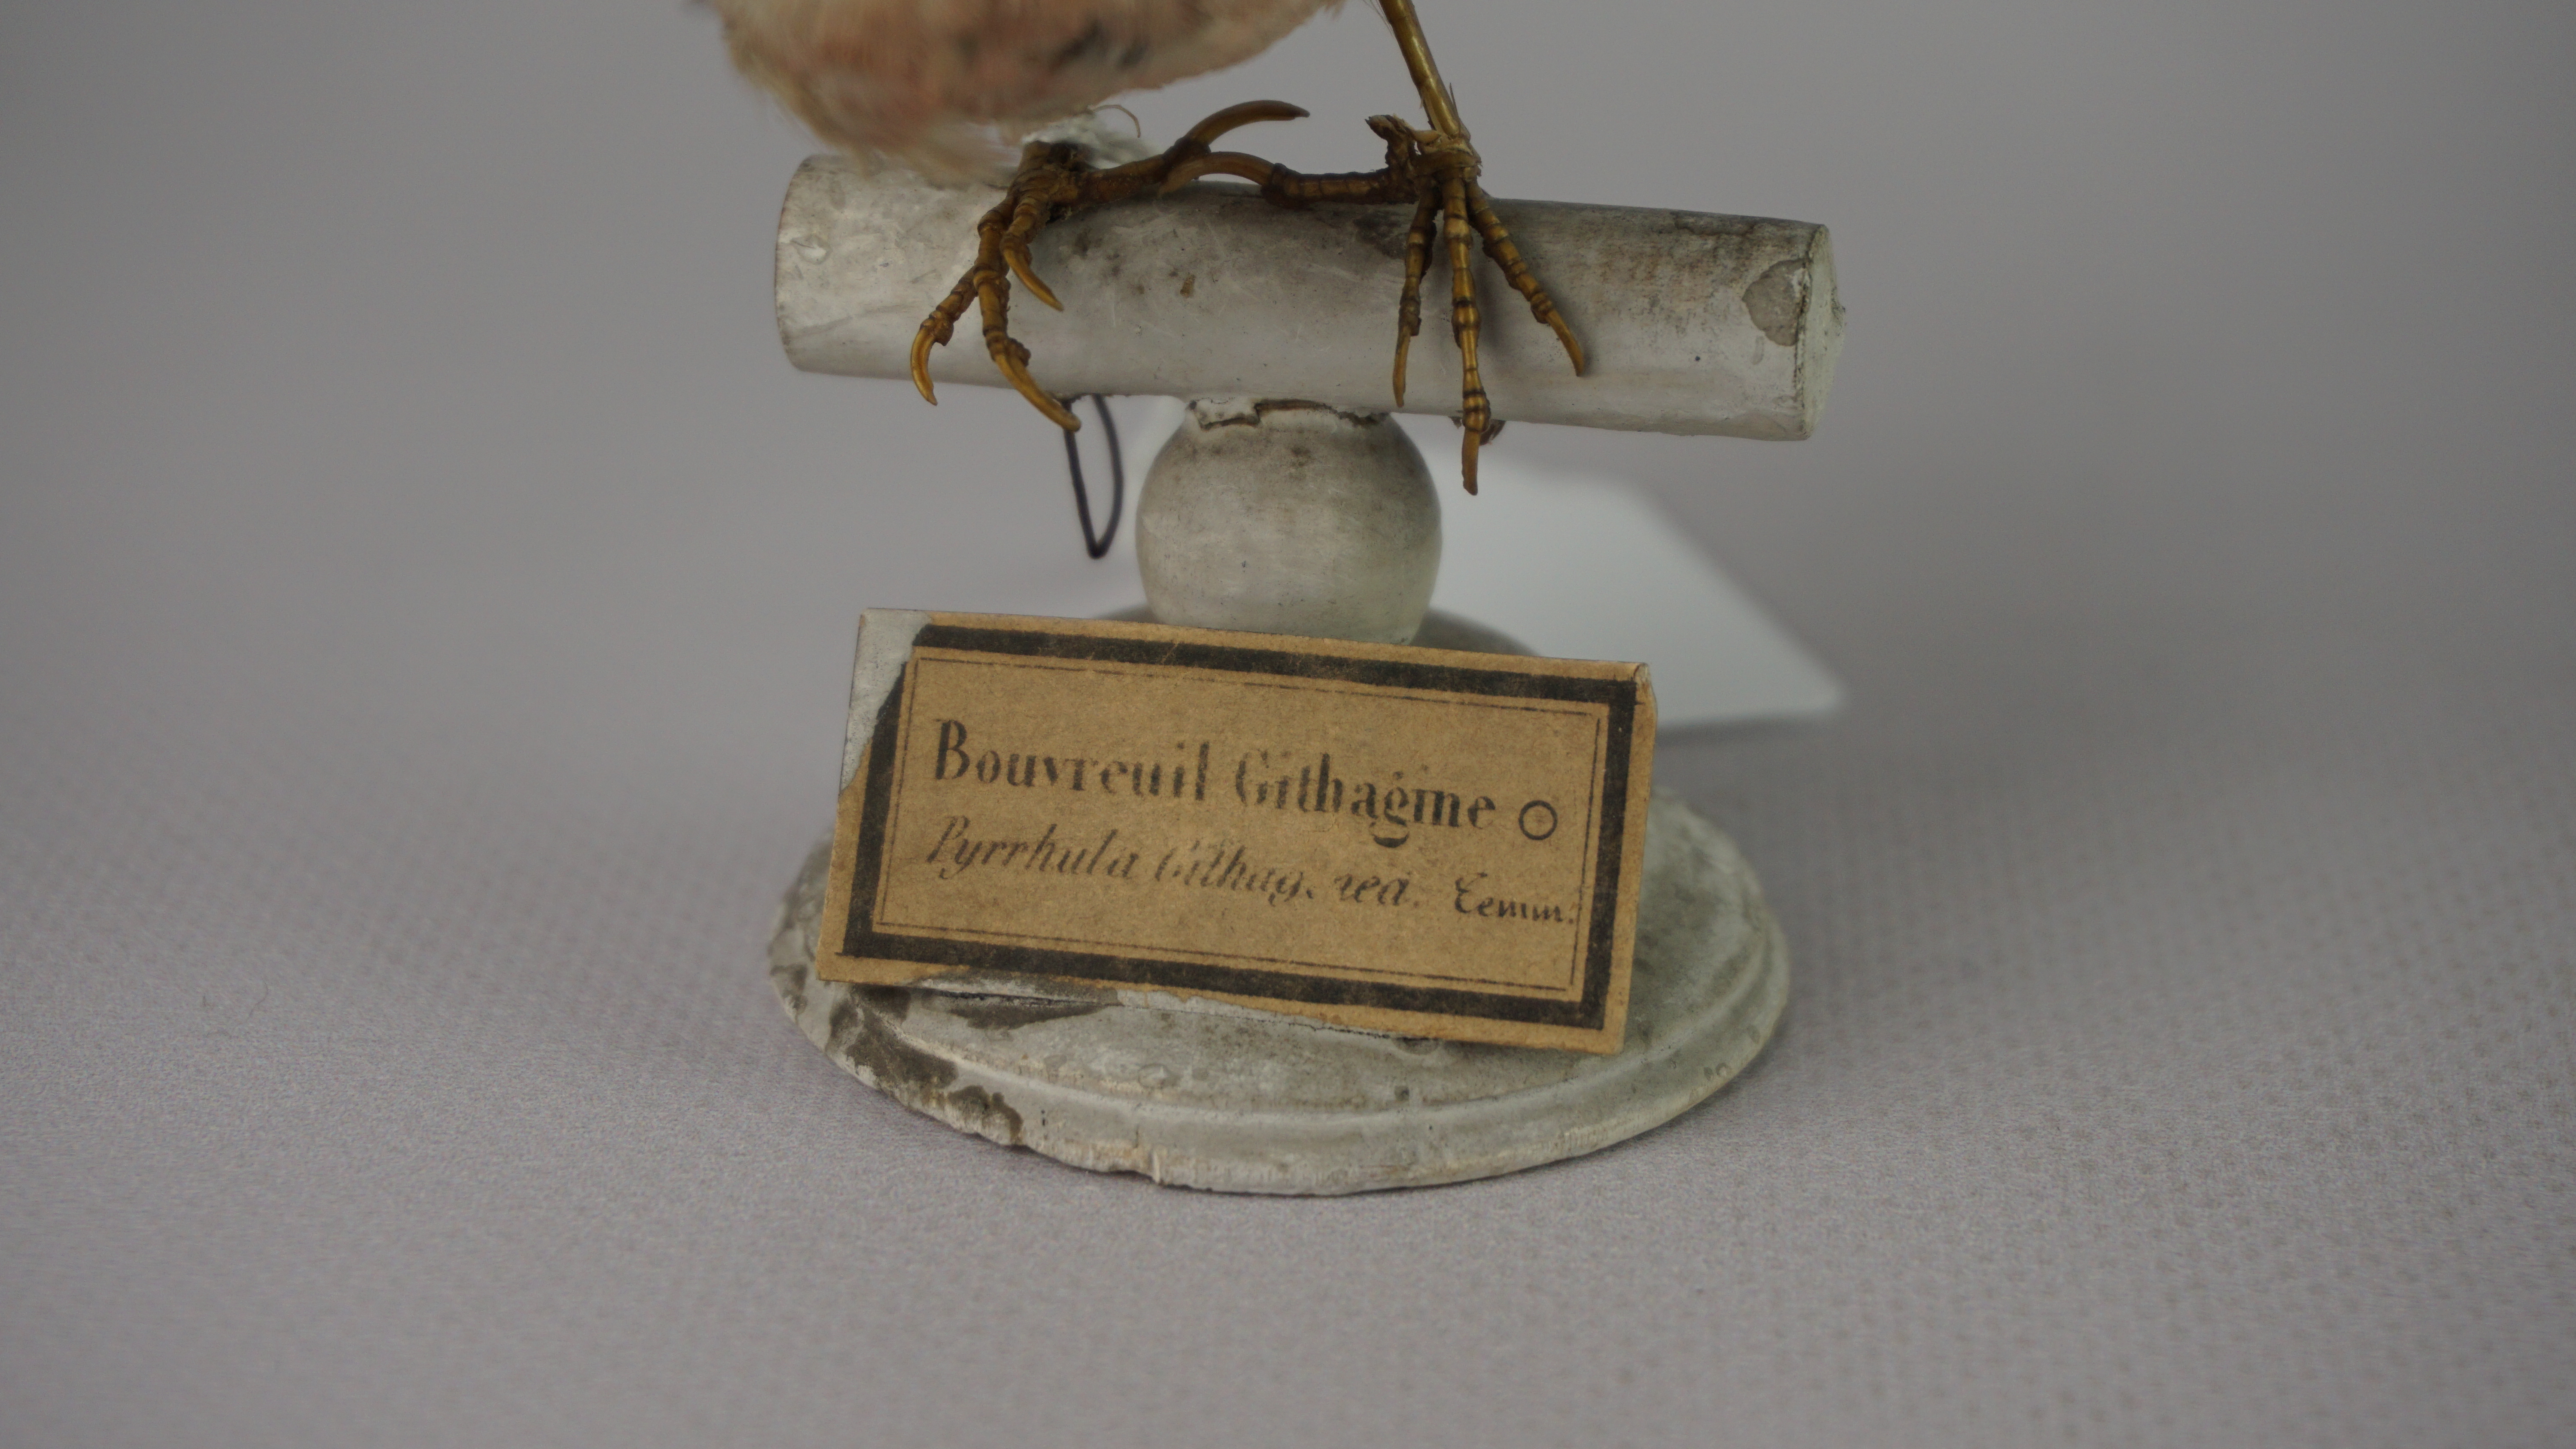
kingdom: Animalia
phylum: Chordata
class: Aves
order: Passeriformes
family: Fringillidae
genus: Bucanetes
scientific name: Bucanetes githagineus
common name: Trumpeter finch
